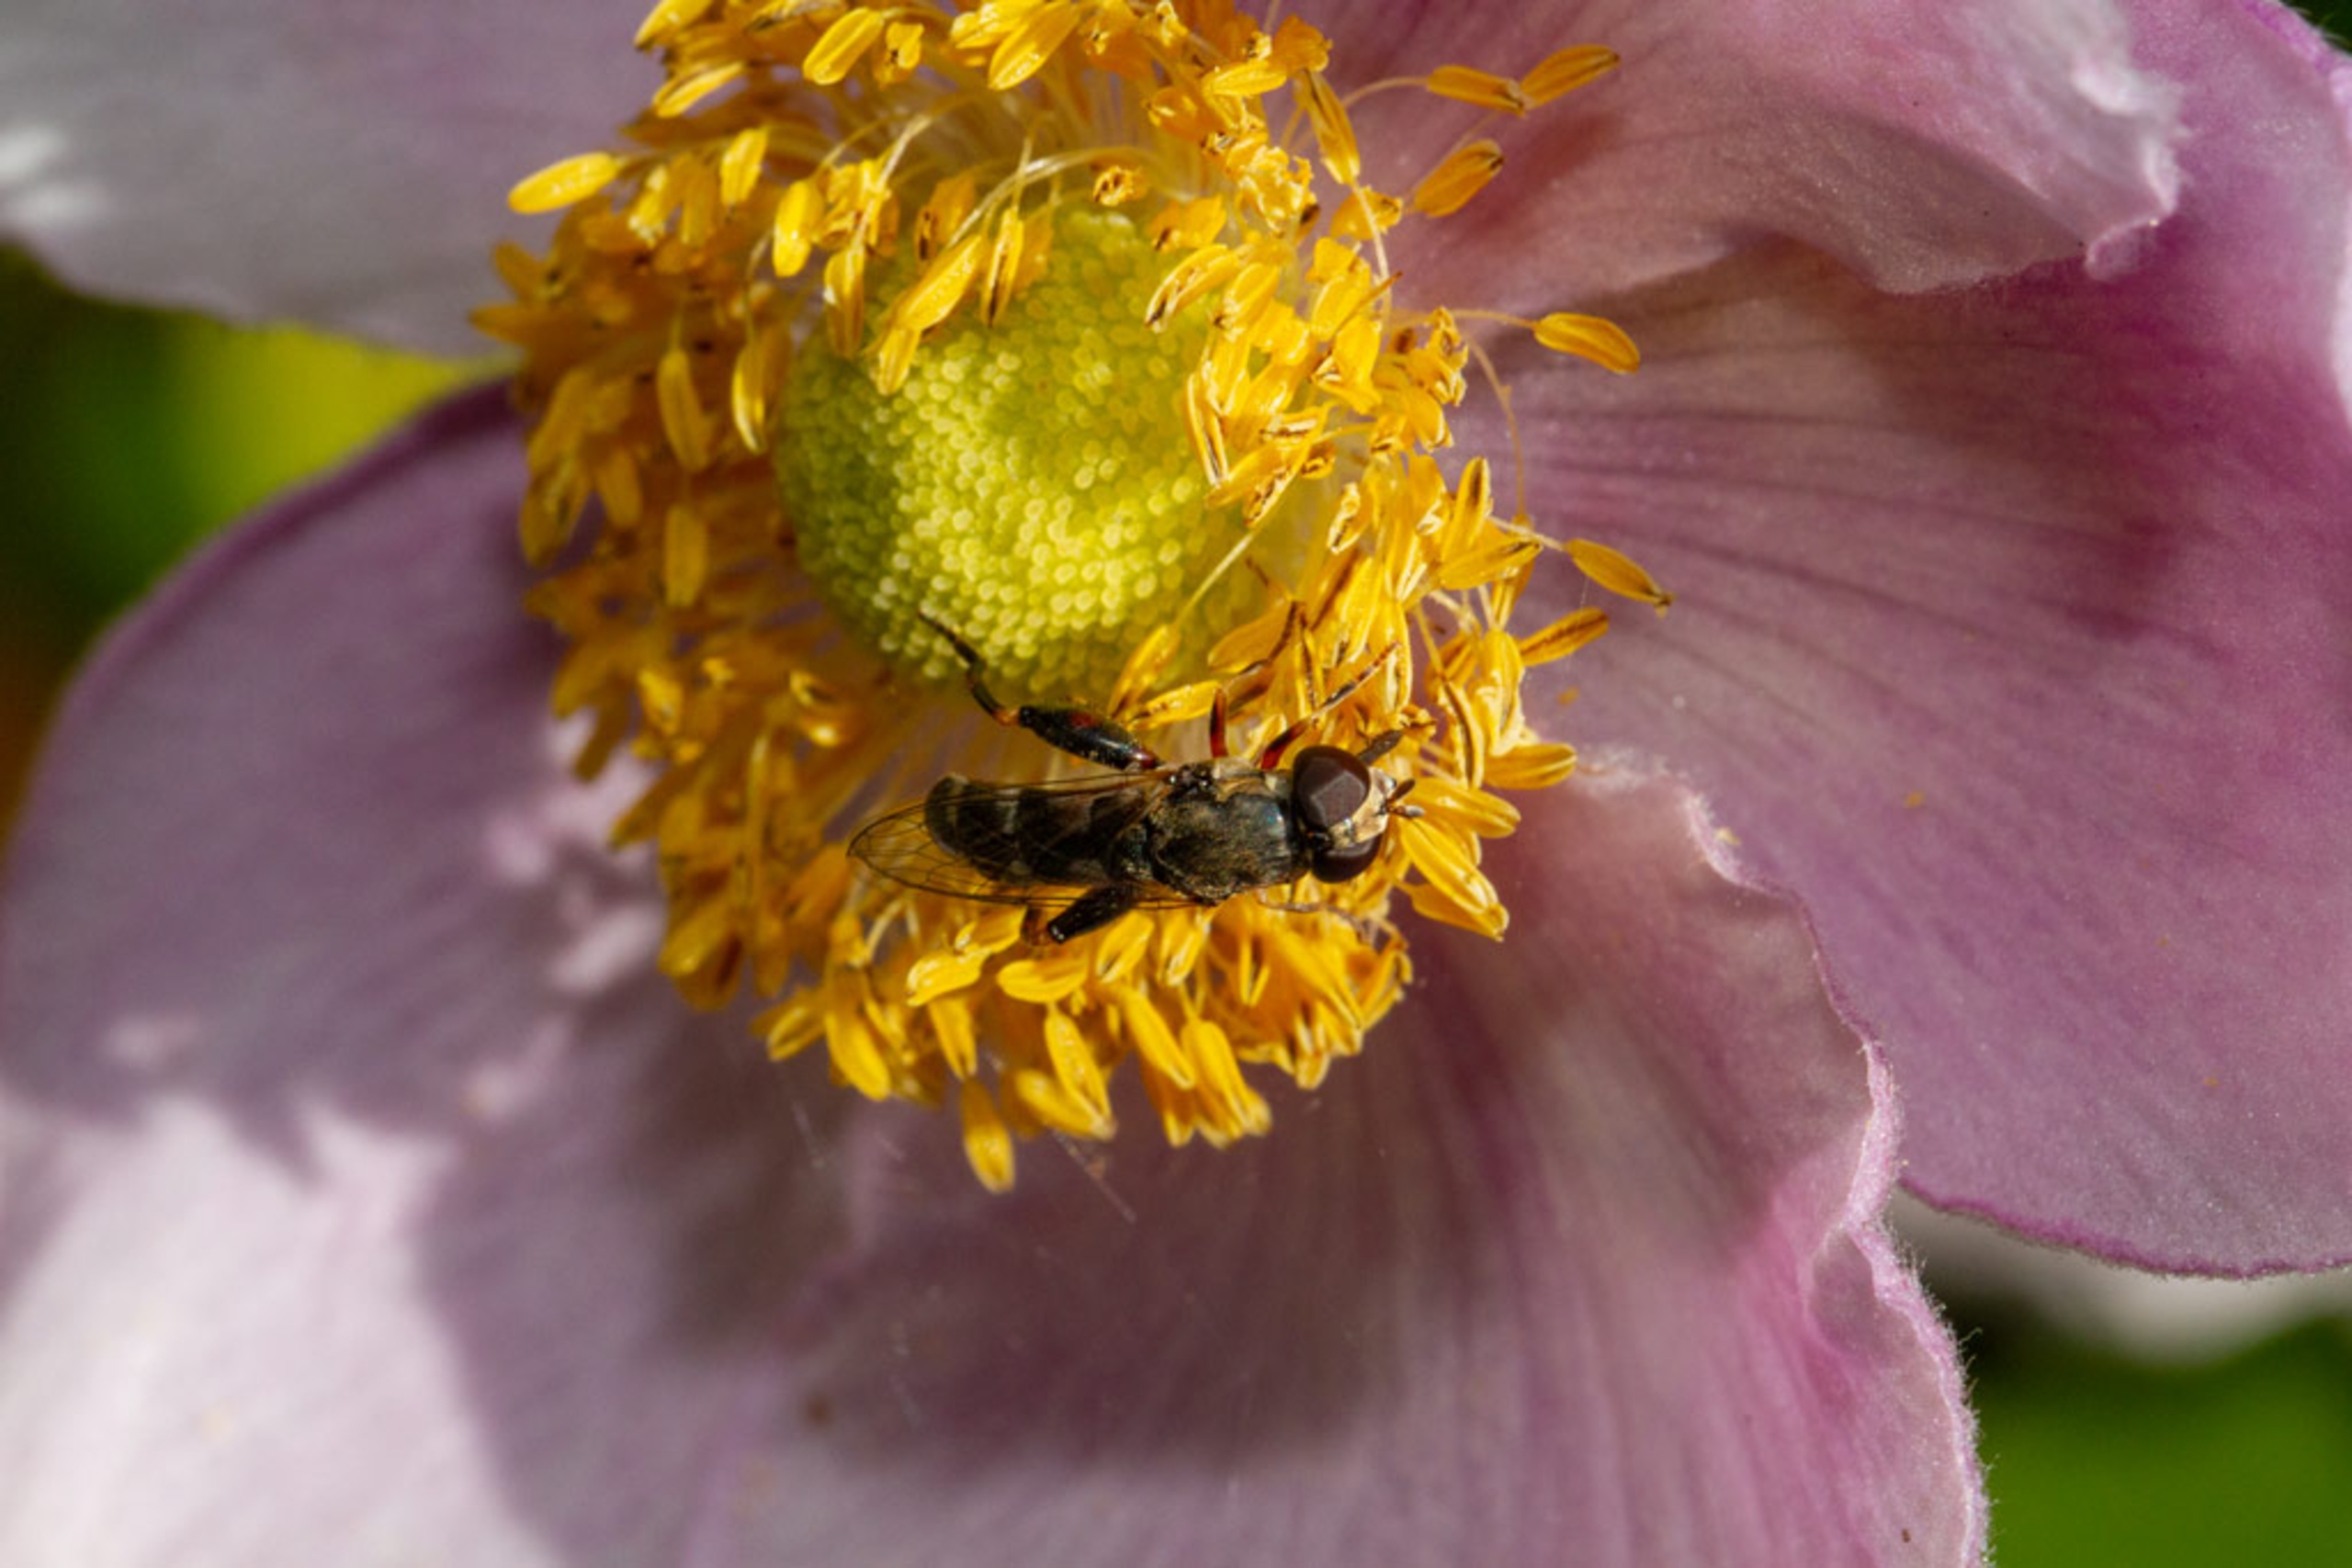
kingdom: Animalia
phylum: Arthropoda
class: Insecta
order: Diptera
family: Syrphidae
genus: Syritta
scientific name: Syritta pipiens
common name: Kompost-svirreflue
